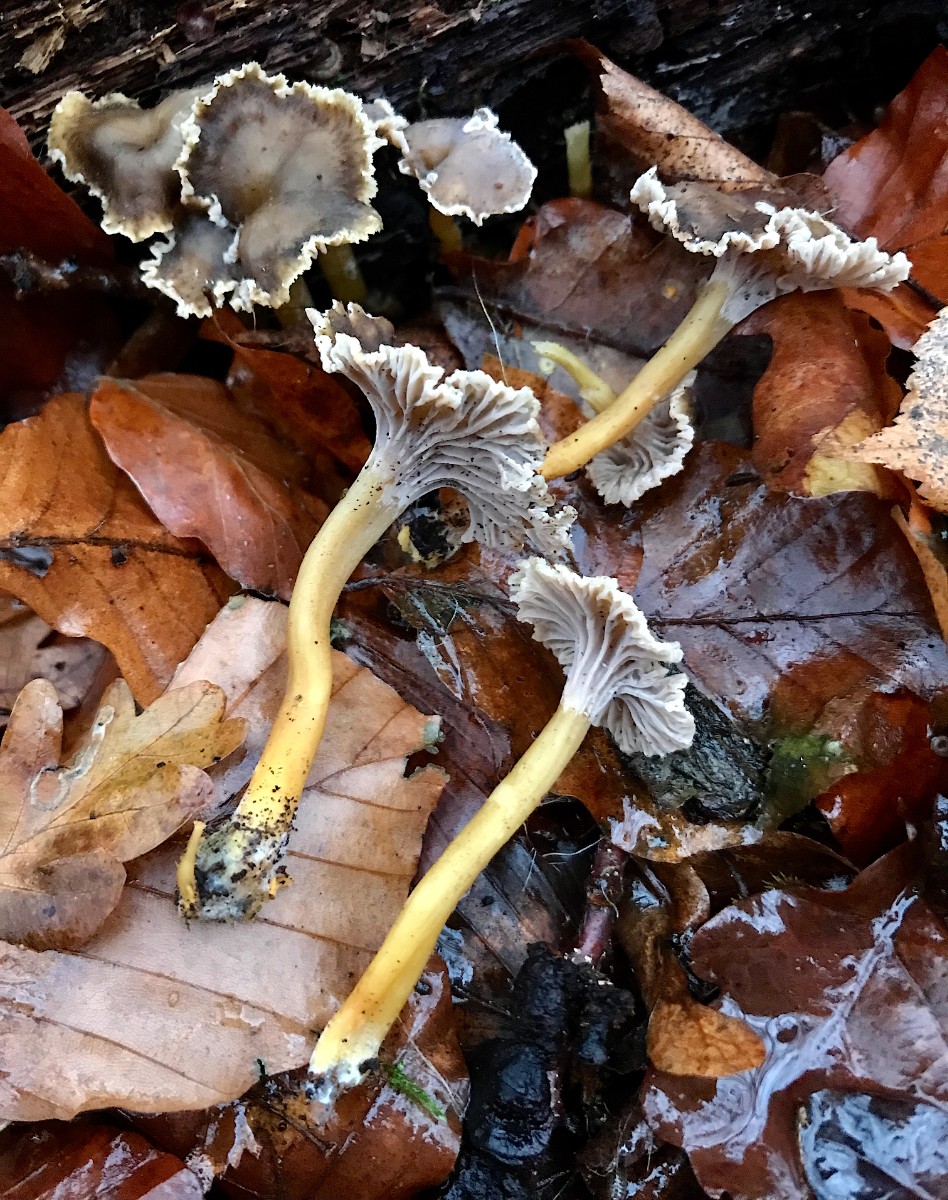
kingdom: Fungi
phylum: Basidiomycota
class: Agaricomycetes
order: Cantharellales
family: Hydnaceae
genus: Craterellus
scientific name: Craterellus tubaeformis
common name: tragt-kantarel
